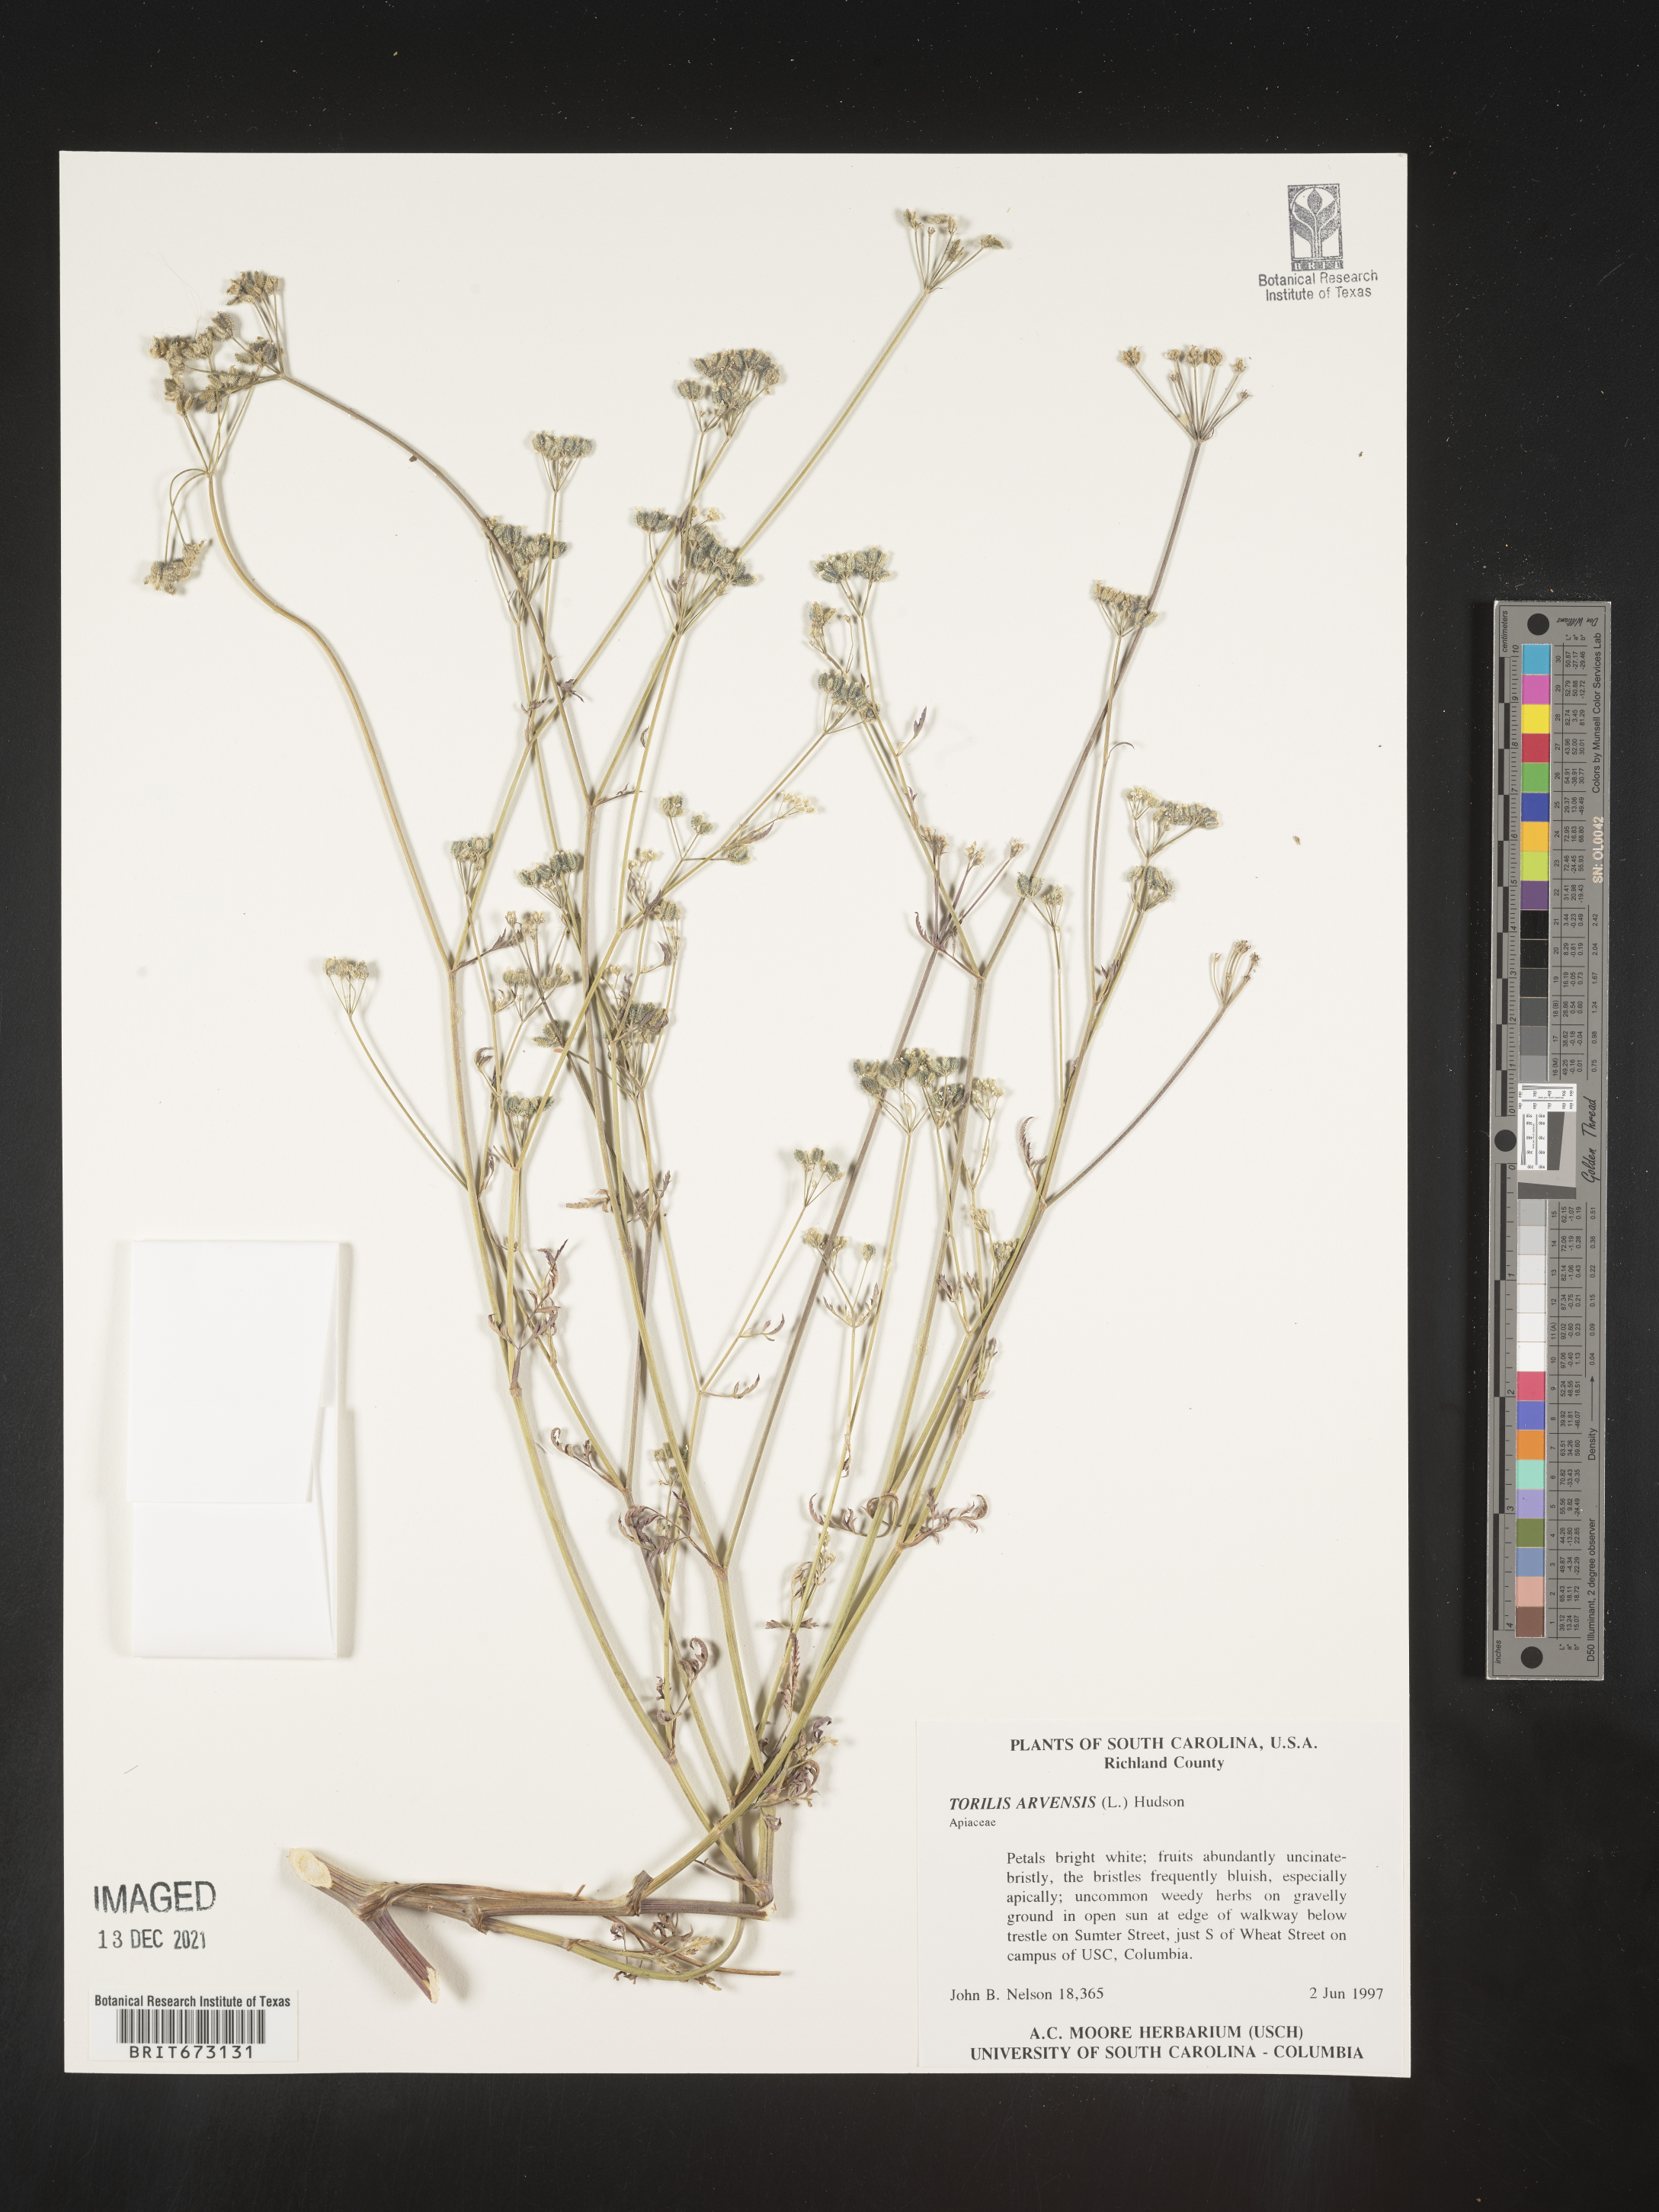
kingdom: Plantae
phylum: Tracheophyta
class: Magnoliopsida
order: Apiales
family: Apiaceae
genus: Torilis
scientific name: Torilis arvensis
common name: Spreading hedge-parsley
